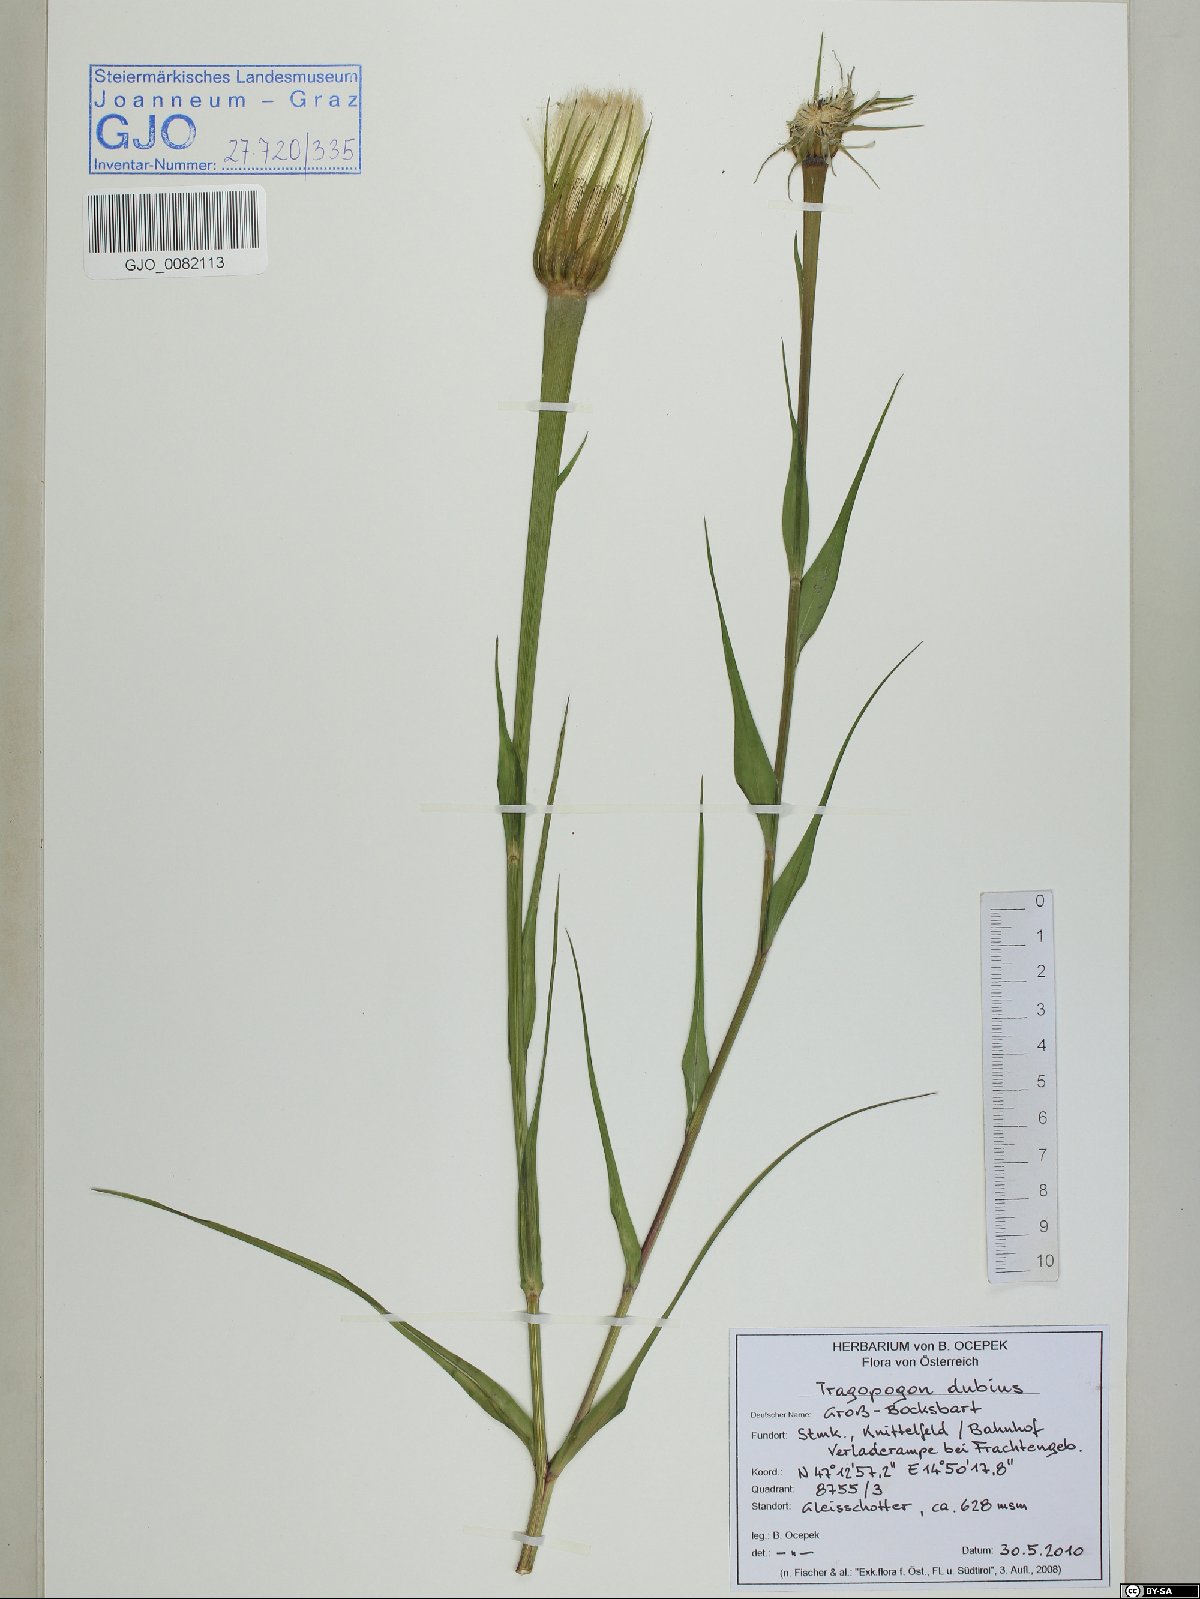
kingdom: Plantae
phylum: Tracheophyta
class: Magnoliopsida
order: Asterales
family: Asteraceae
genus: Tragopogon
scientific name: Tragopogon dubius
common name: Yellow salsify
